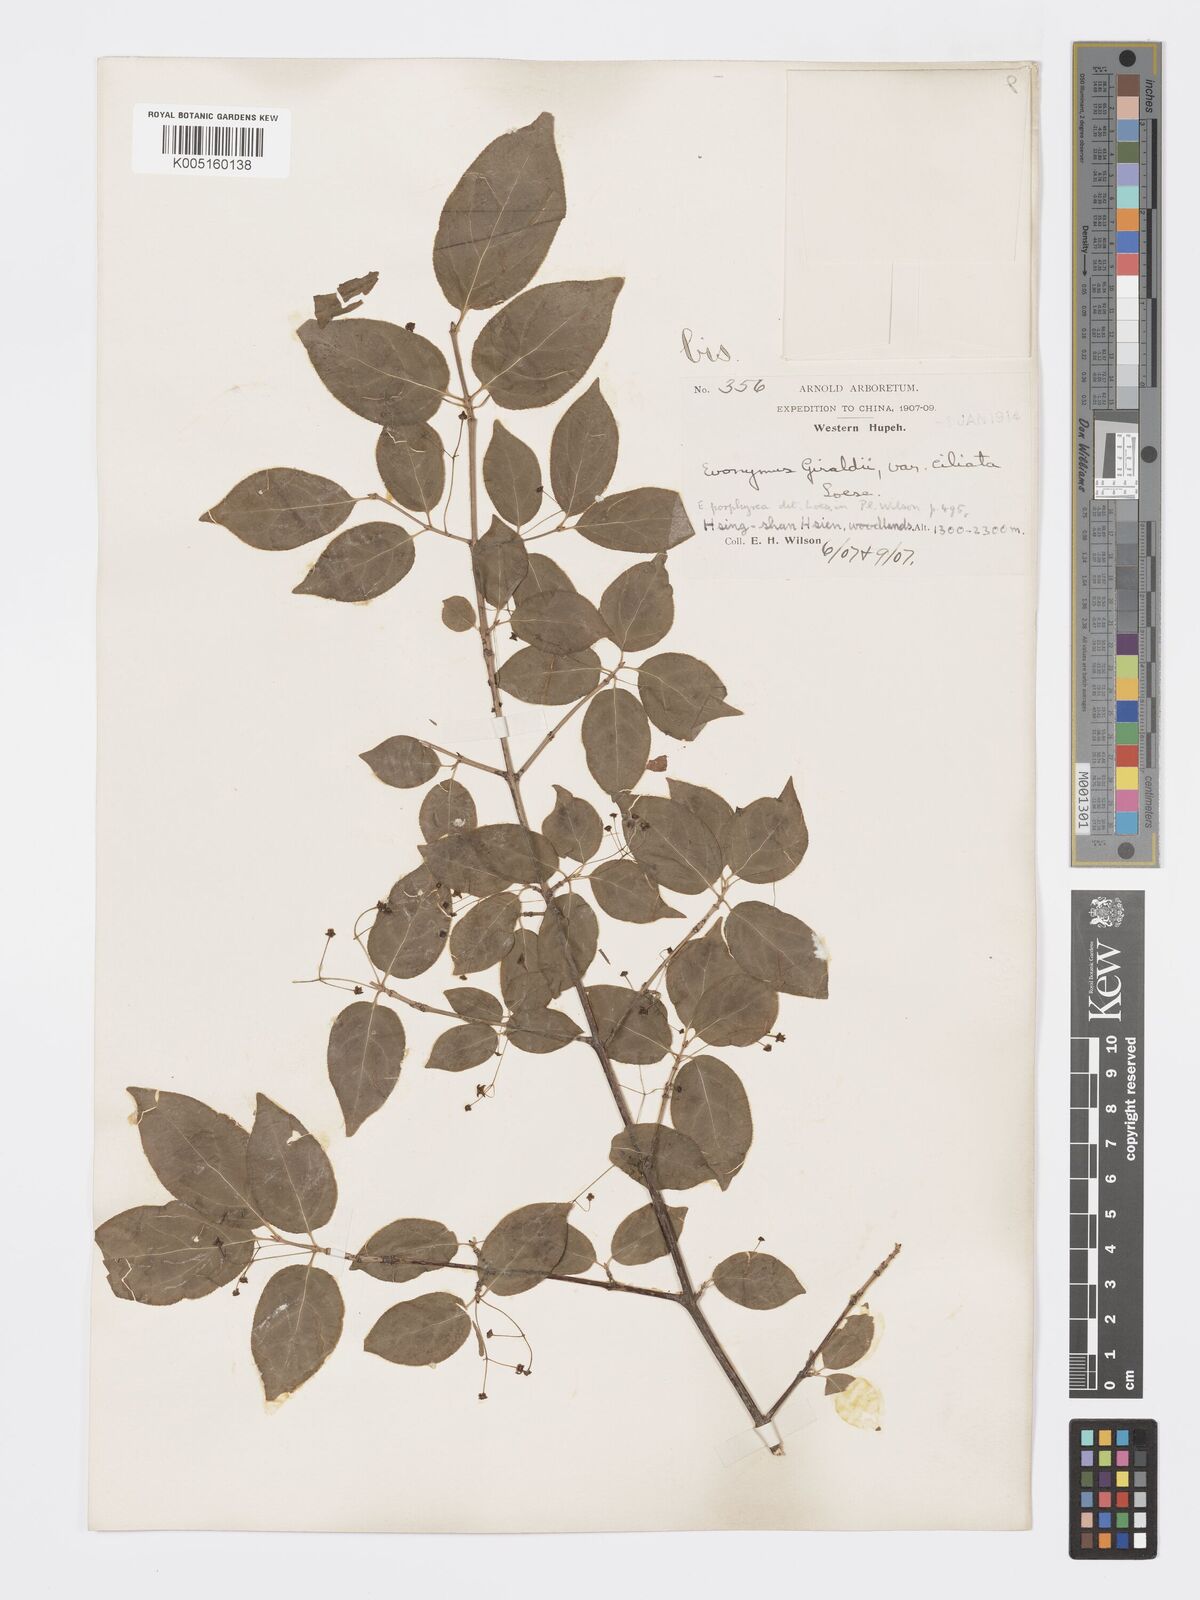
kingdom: Plantae
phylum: Tracheophyta
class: Magnoliopsida
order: Celastrales
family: Celastraceae
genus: Euonymus
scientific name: Euonymus frigidus
